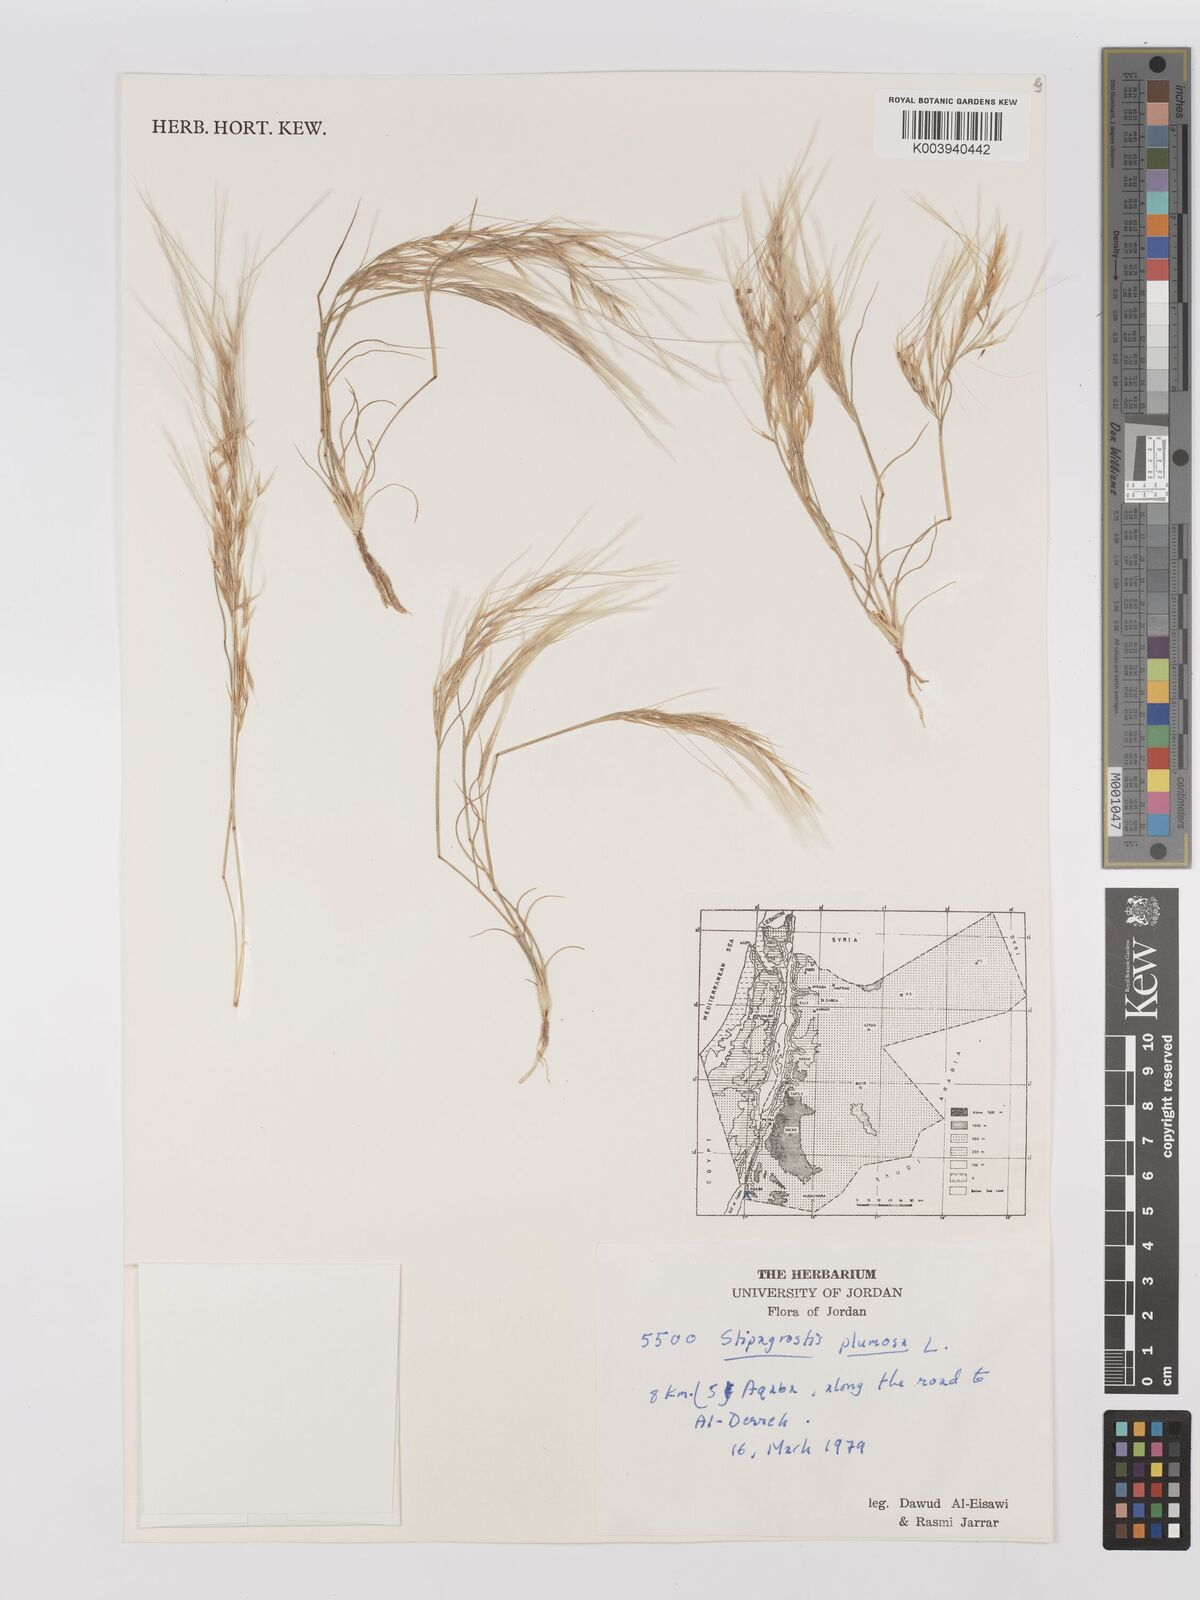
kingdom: Plantae
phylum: Tracheophyta
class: Liliopsida
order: Poales
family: Poaceae
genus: Stipagrostis
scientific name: Stipagrostis plumosa
